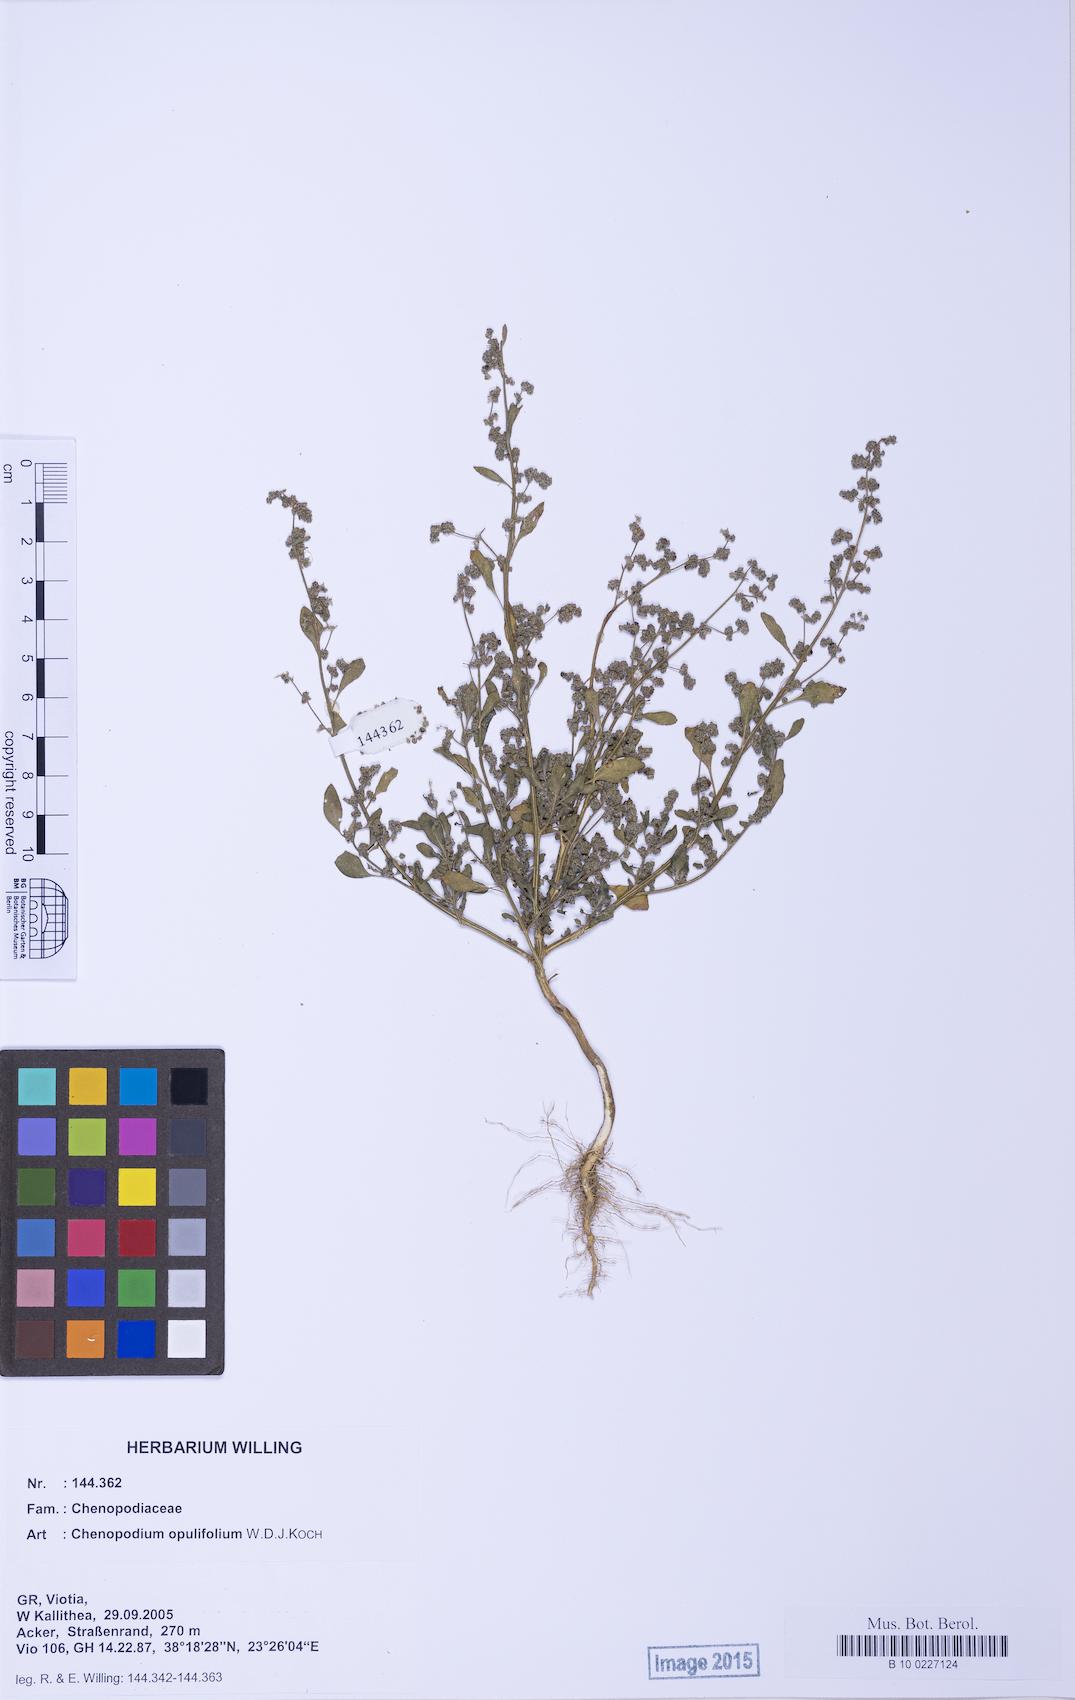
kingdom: Plantae
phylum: Tracheophyta
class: Magnoliopsida
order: Caryophyllales
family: Amaranthaceae
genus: Chenopodium
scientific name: Chenopodium album
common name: Fat-hen
